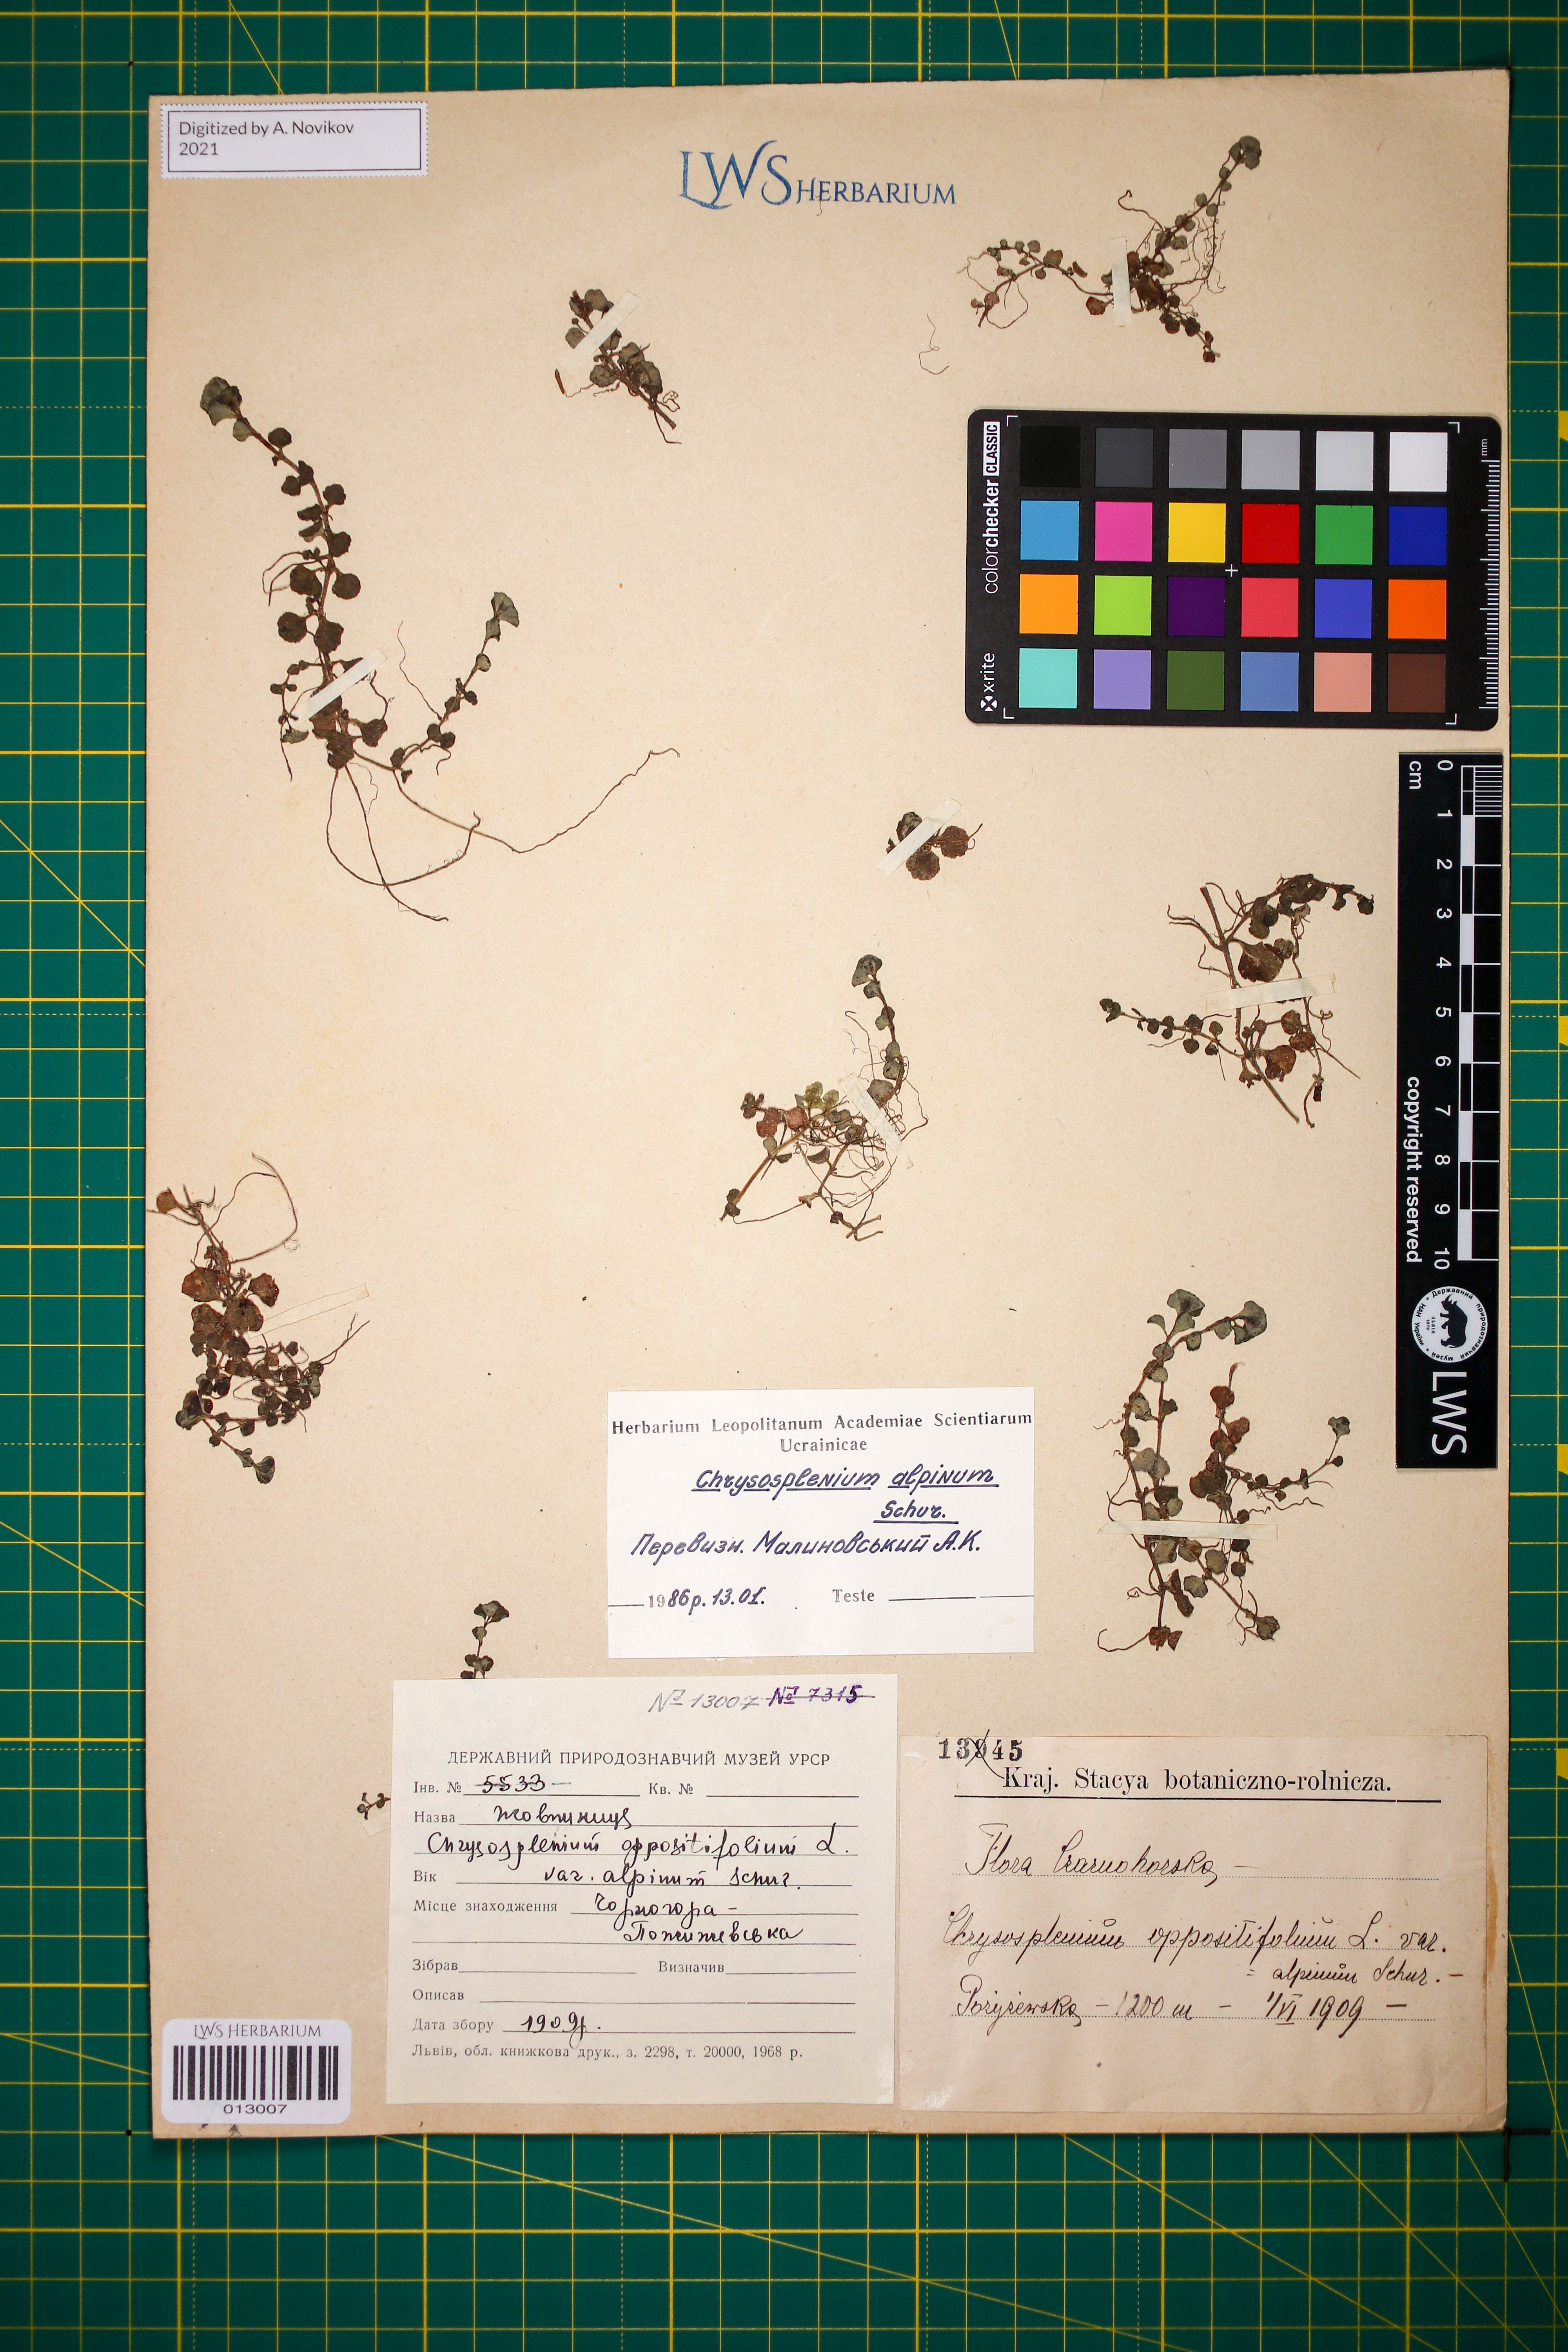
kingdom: Plantae
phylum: Tracheophyta
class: Magnoliopsida
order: Saxifragales
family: Saxifragaceae
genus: Chrysosplenium
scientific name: Chrysosplenium alpinum
